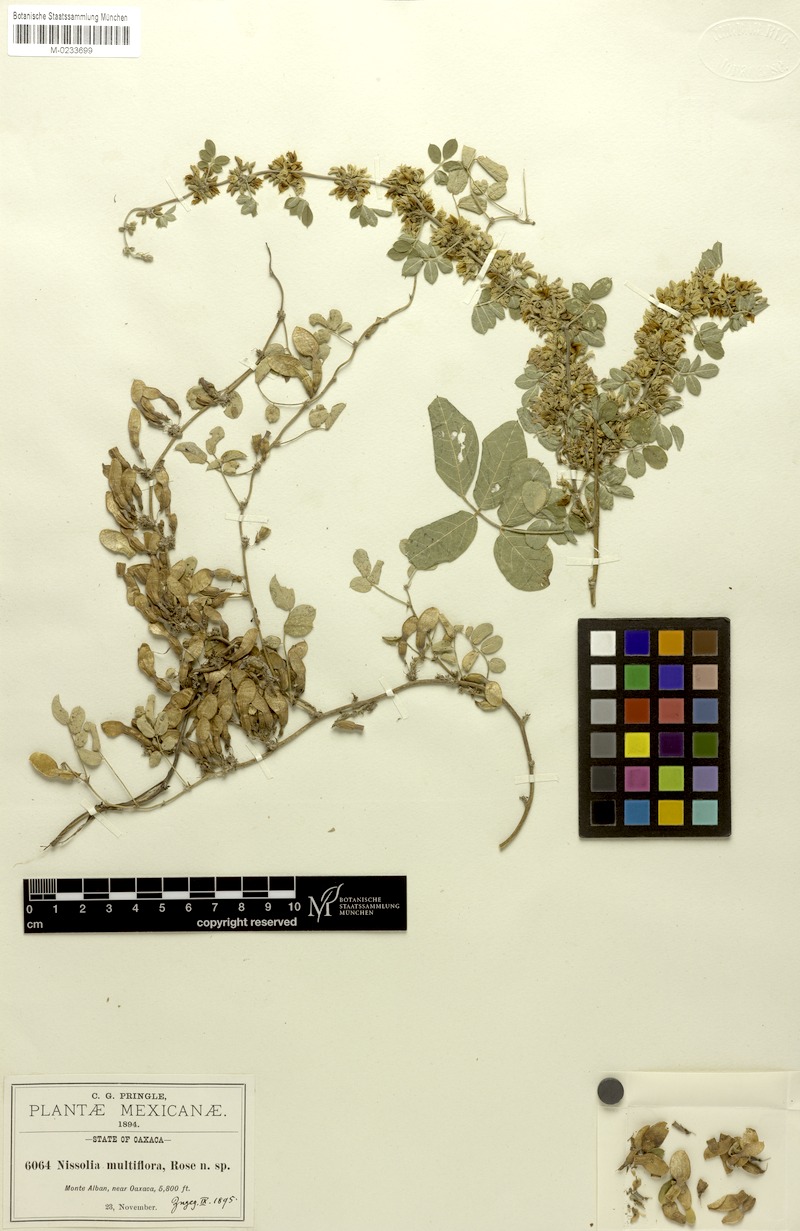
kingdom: Plantae
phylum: Tracheophyta
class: Magnoliopsida
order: Fabales
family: Fabaceae
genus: Nissolia
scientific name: Nissolia microptera
